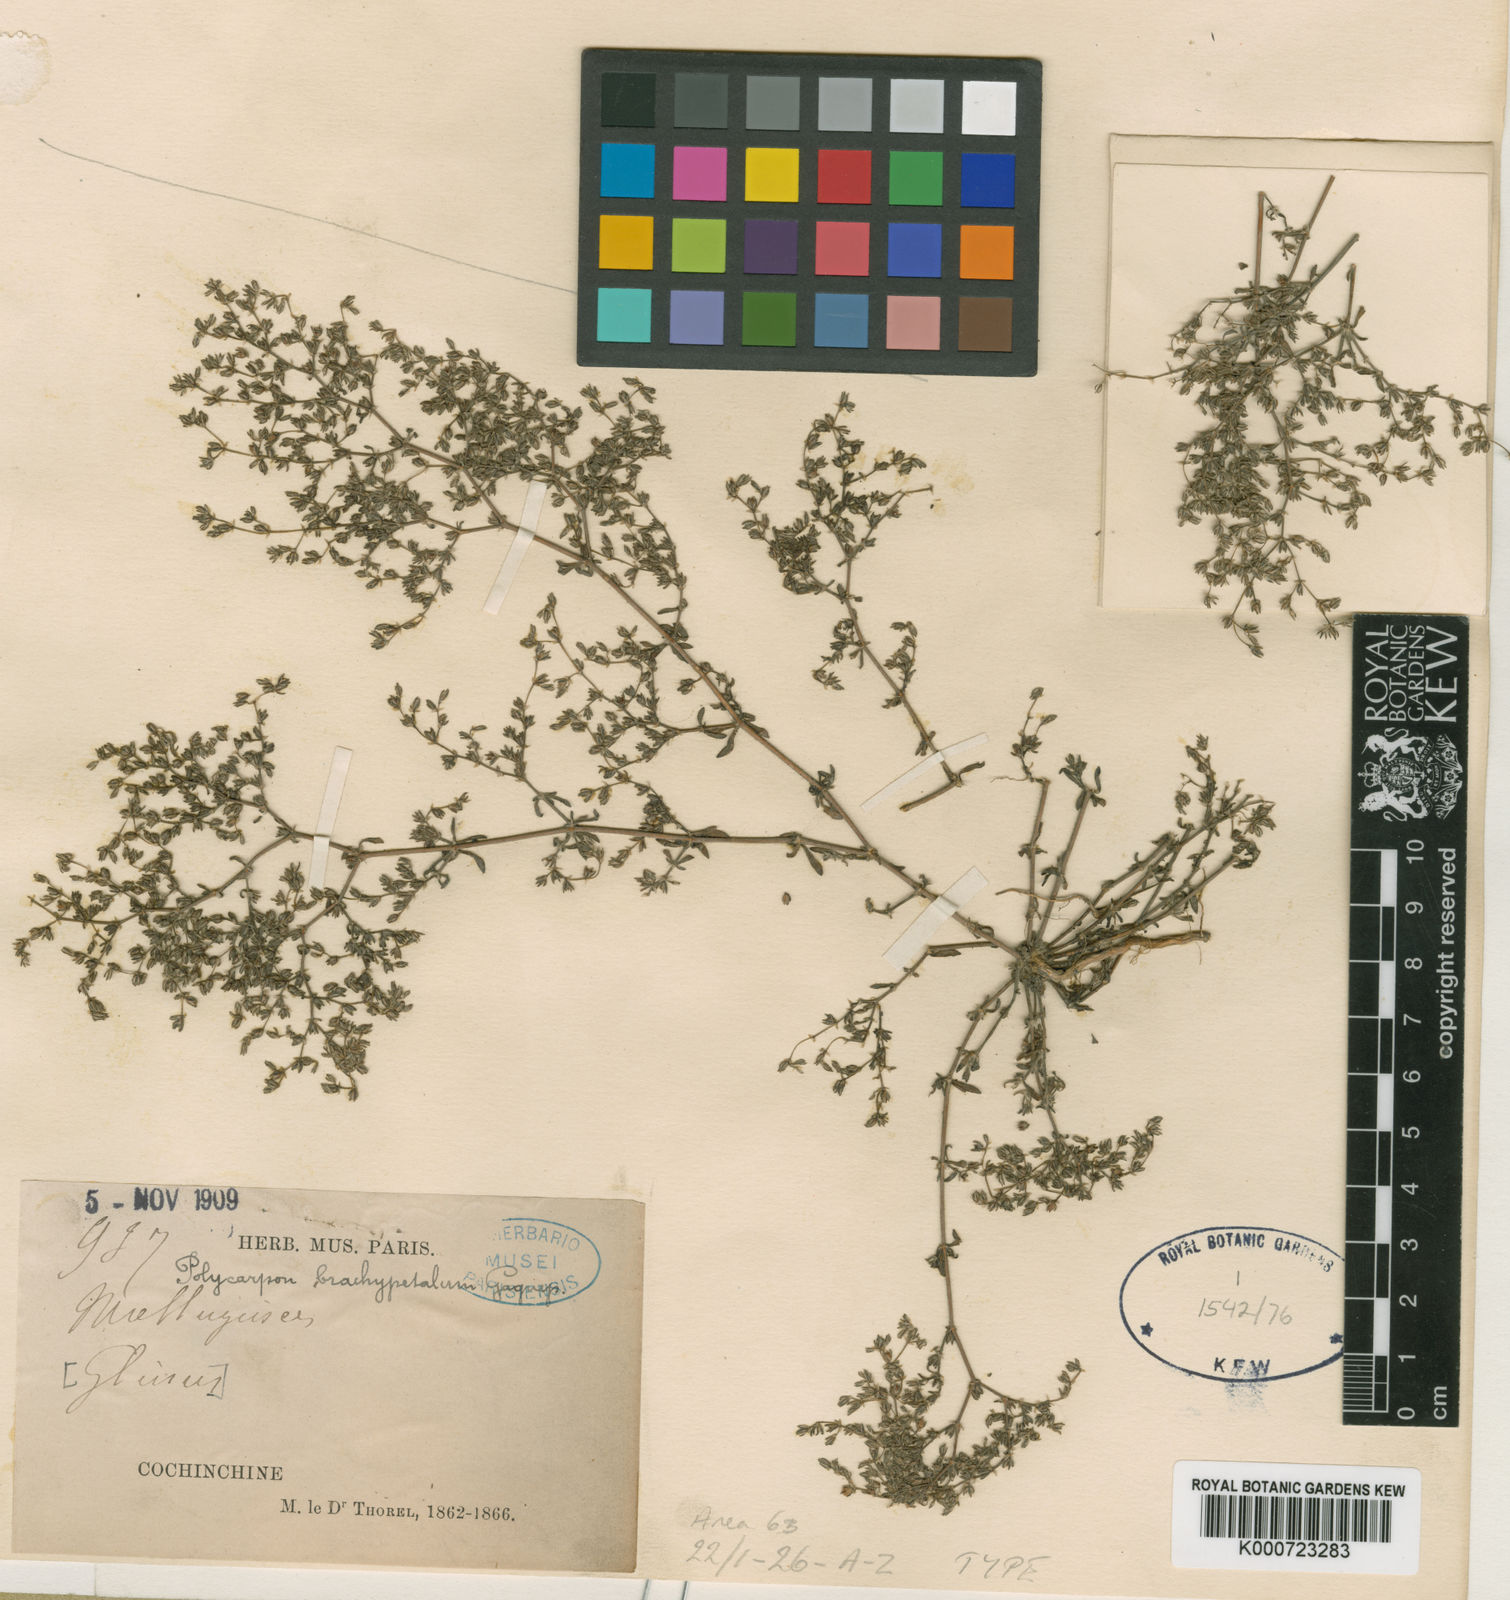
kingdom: Plantae
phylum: Tracheophyta
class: Magnoliopsida
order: Caryophyllales
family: Caryophyllaceae
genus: Polycarpon
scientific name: Polycarpon tetraphyllum
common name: Four-leaved all-seed
